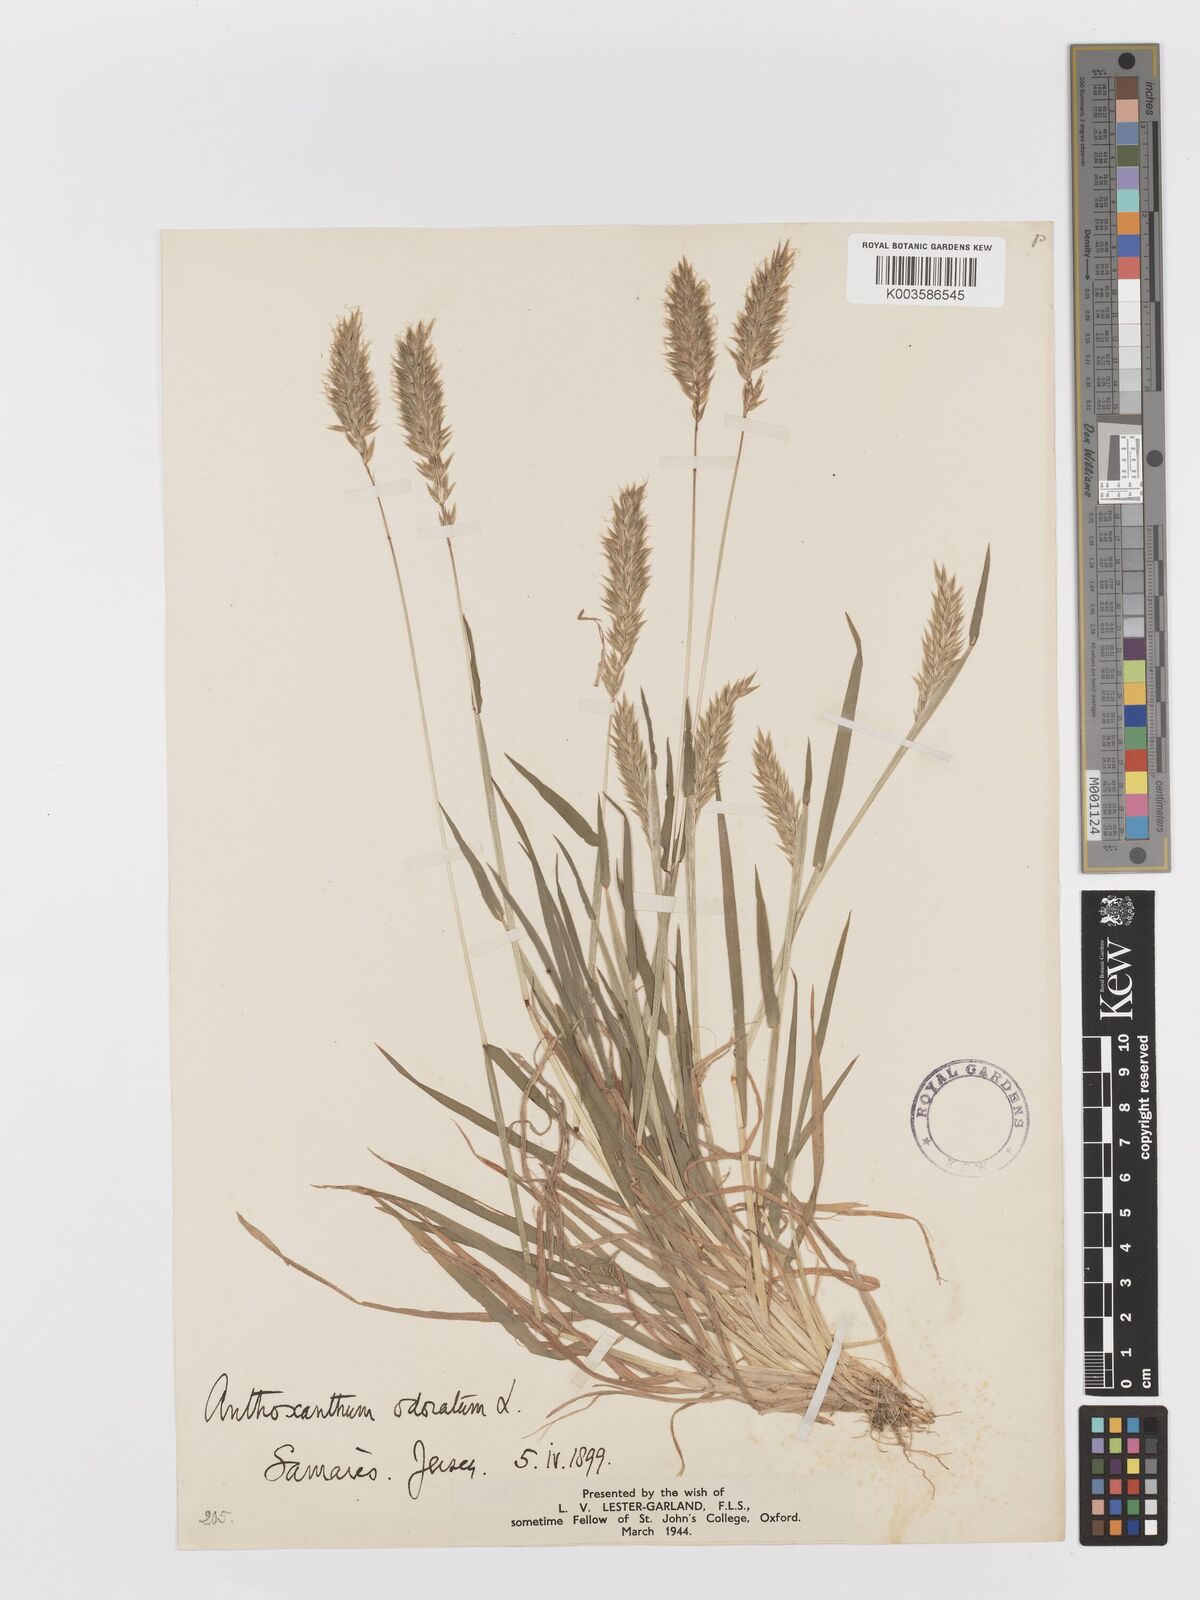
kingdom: Plantae
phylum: Tracheophyta
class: Liliopsida
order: Poales
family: Poaceae
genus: Anthoxanthum
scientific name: Anthoxanthum odoratum
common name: Sweet vernalgrass
